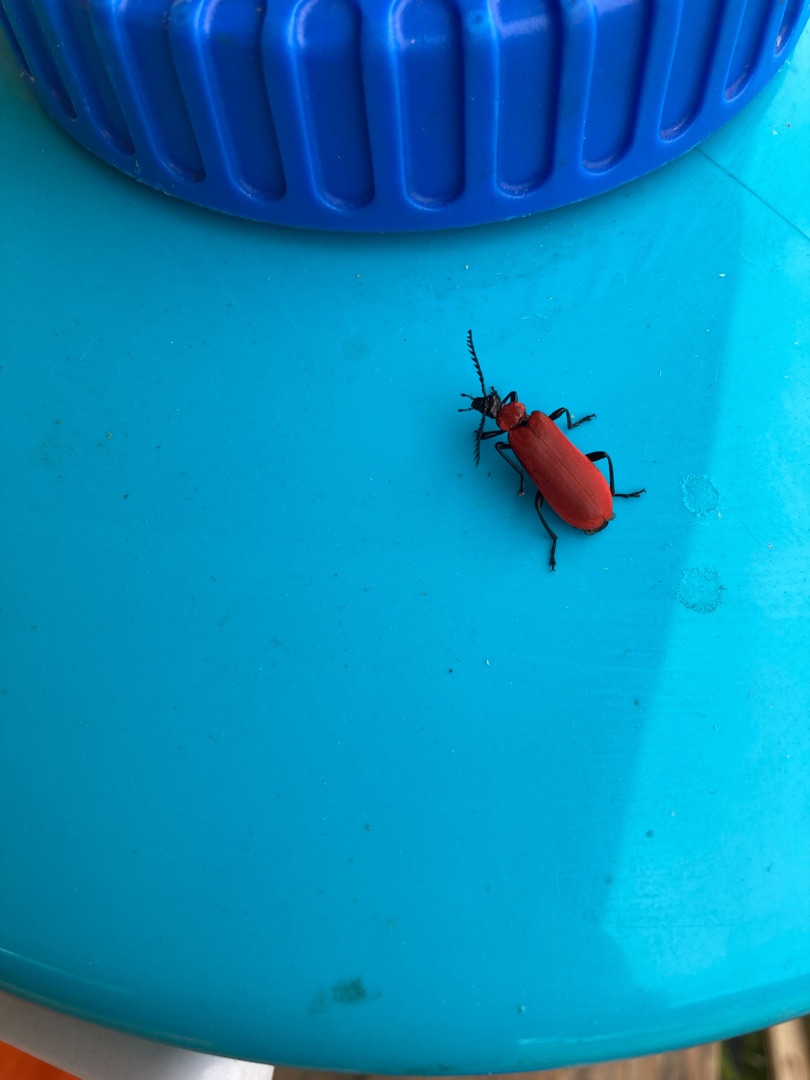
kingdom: Animalia
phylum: Arthropoda
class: Insecta
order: Coleoptera
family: Pyrochroidae
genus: Pyrochroa
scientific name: Pyrochroa coccinea
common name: Sorthovedet kardinalbille
